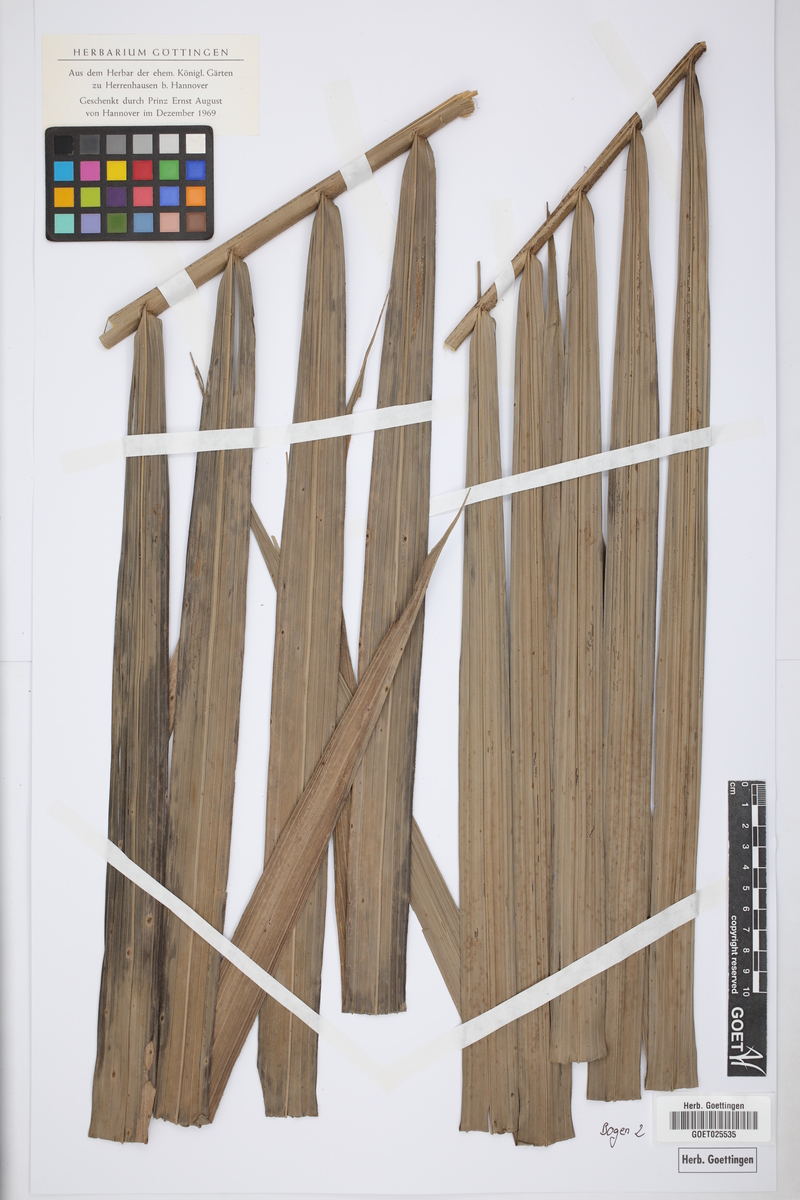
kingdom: Plantae
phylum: Tracheophyta
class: Liliopsida
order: Arecales
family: Arecaceae
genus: Elaeis
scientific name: Elaeis guineensis
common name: Oil palm
